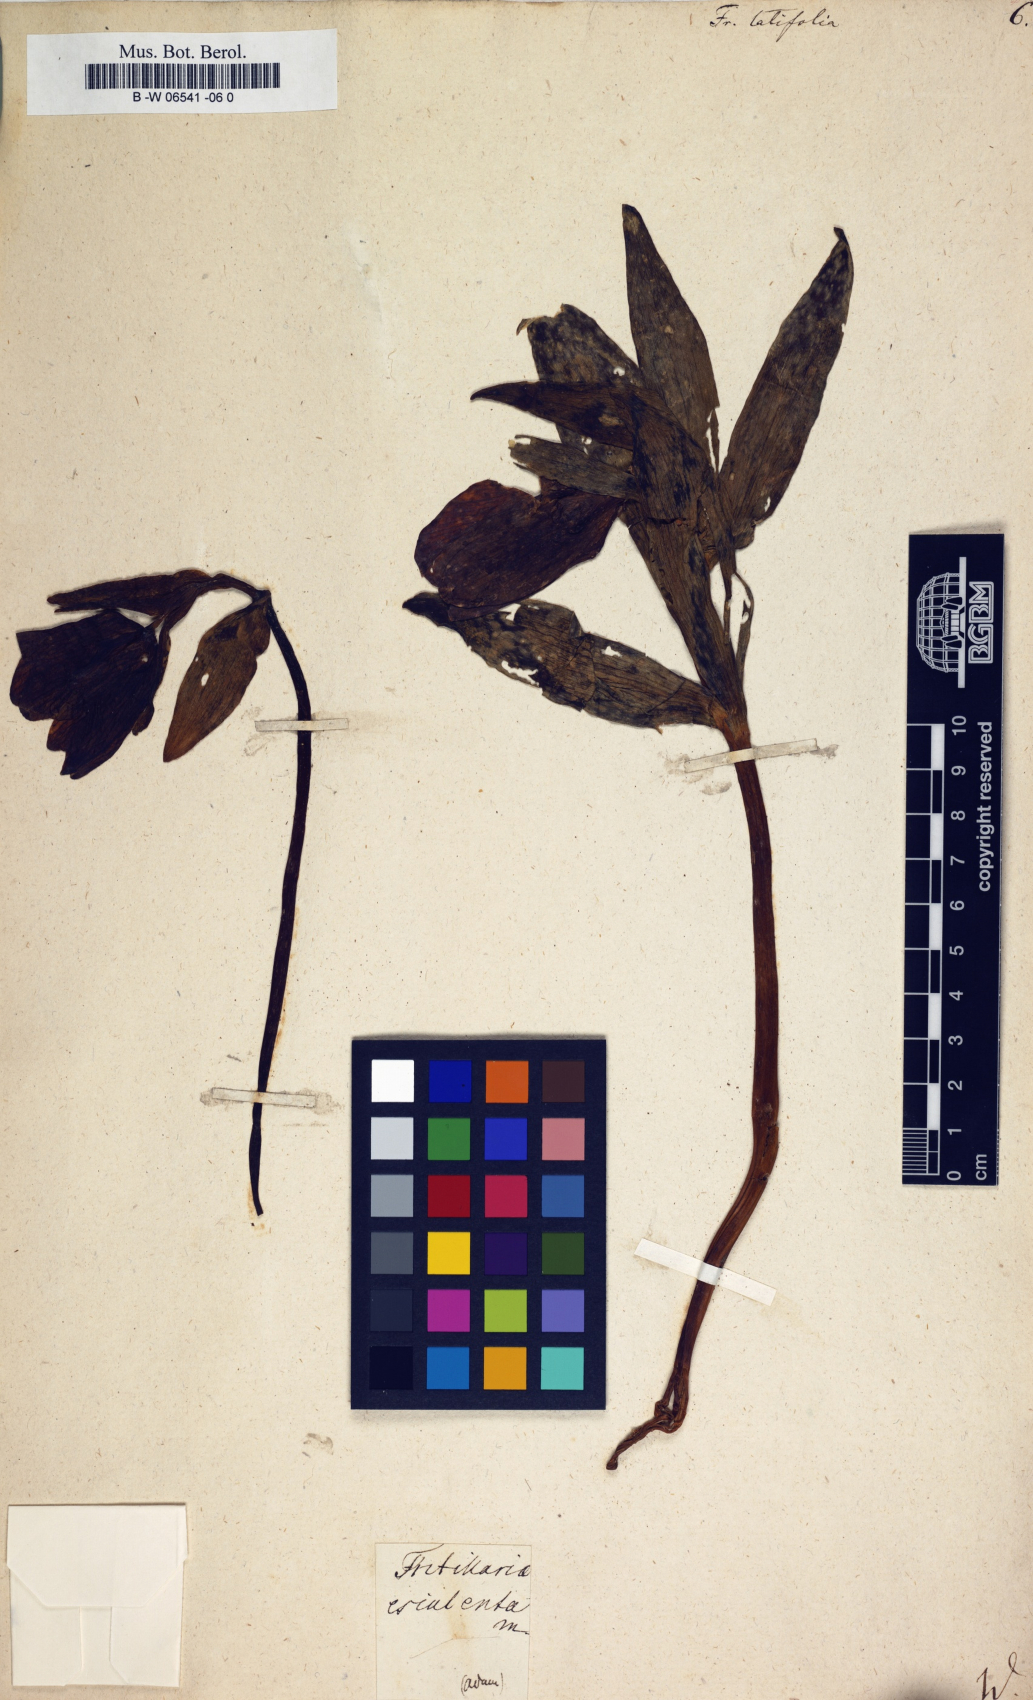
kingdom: Plantae
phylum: Tracheophyta
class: Liliopsida
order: Liliales
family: Liliaceae
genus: Fritillaria
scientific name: Fritillaria latifolia
